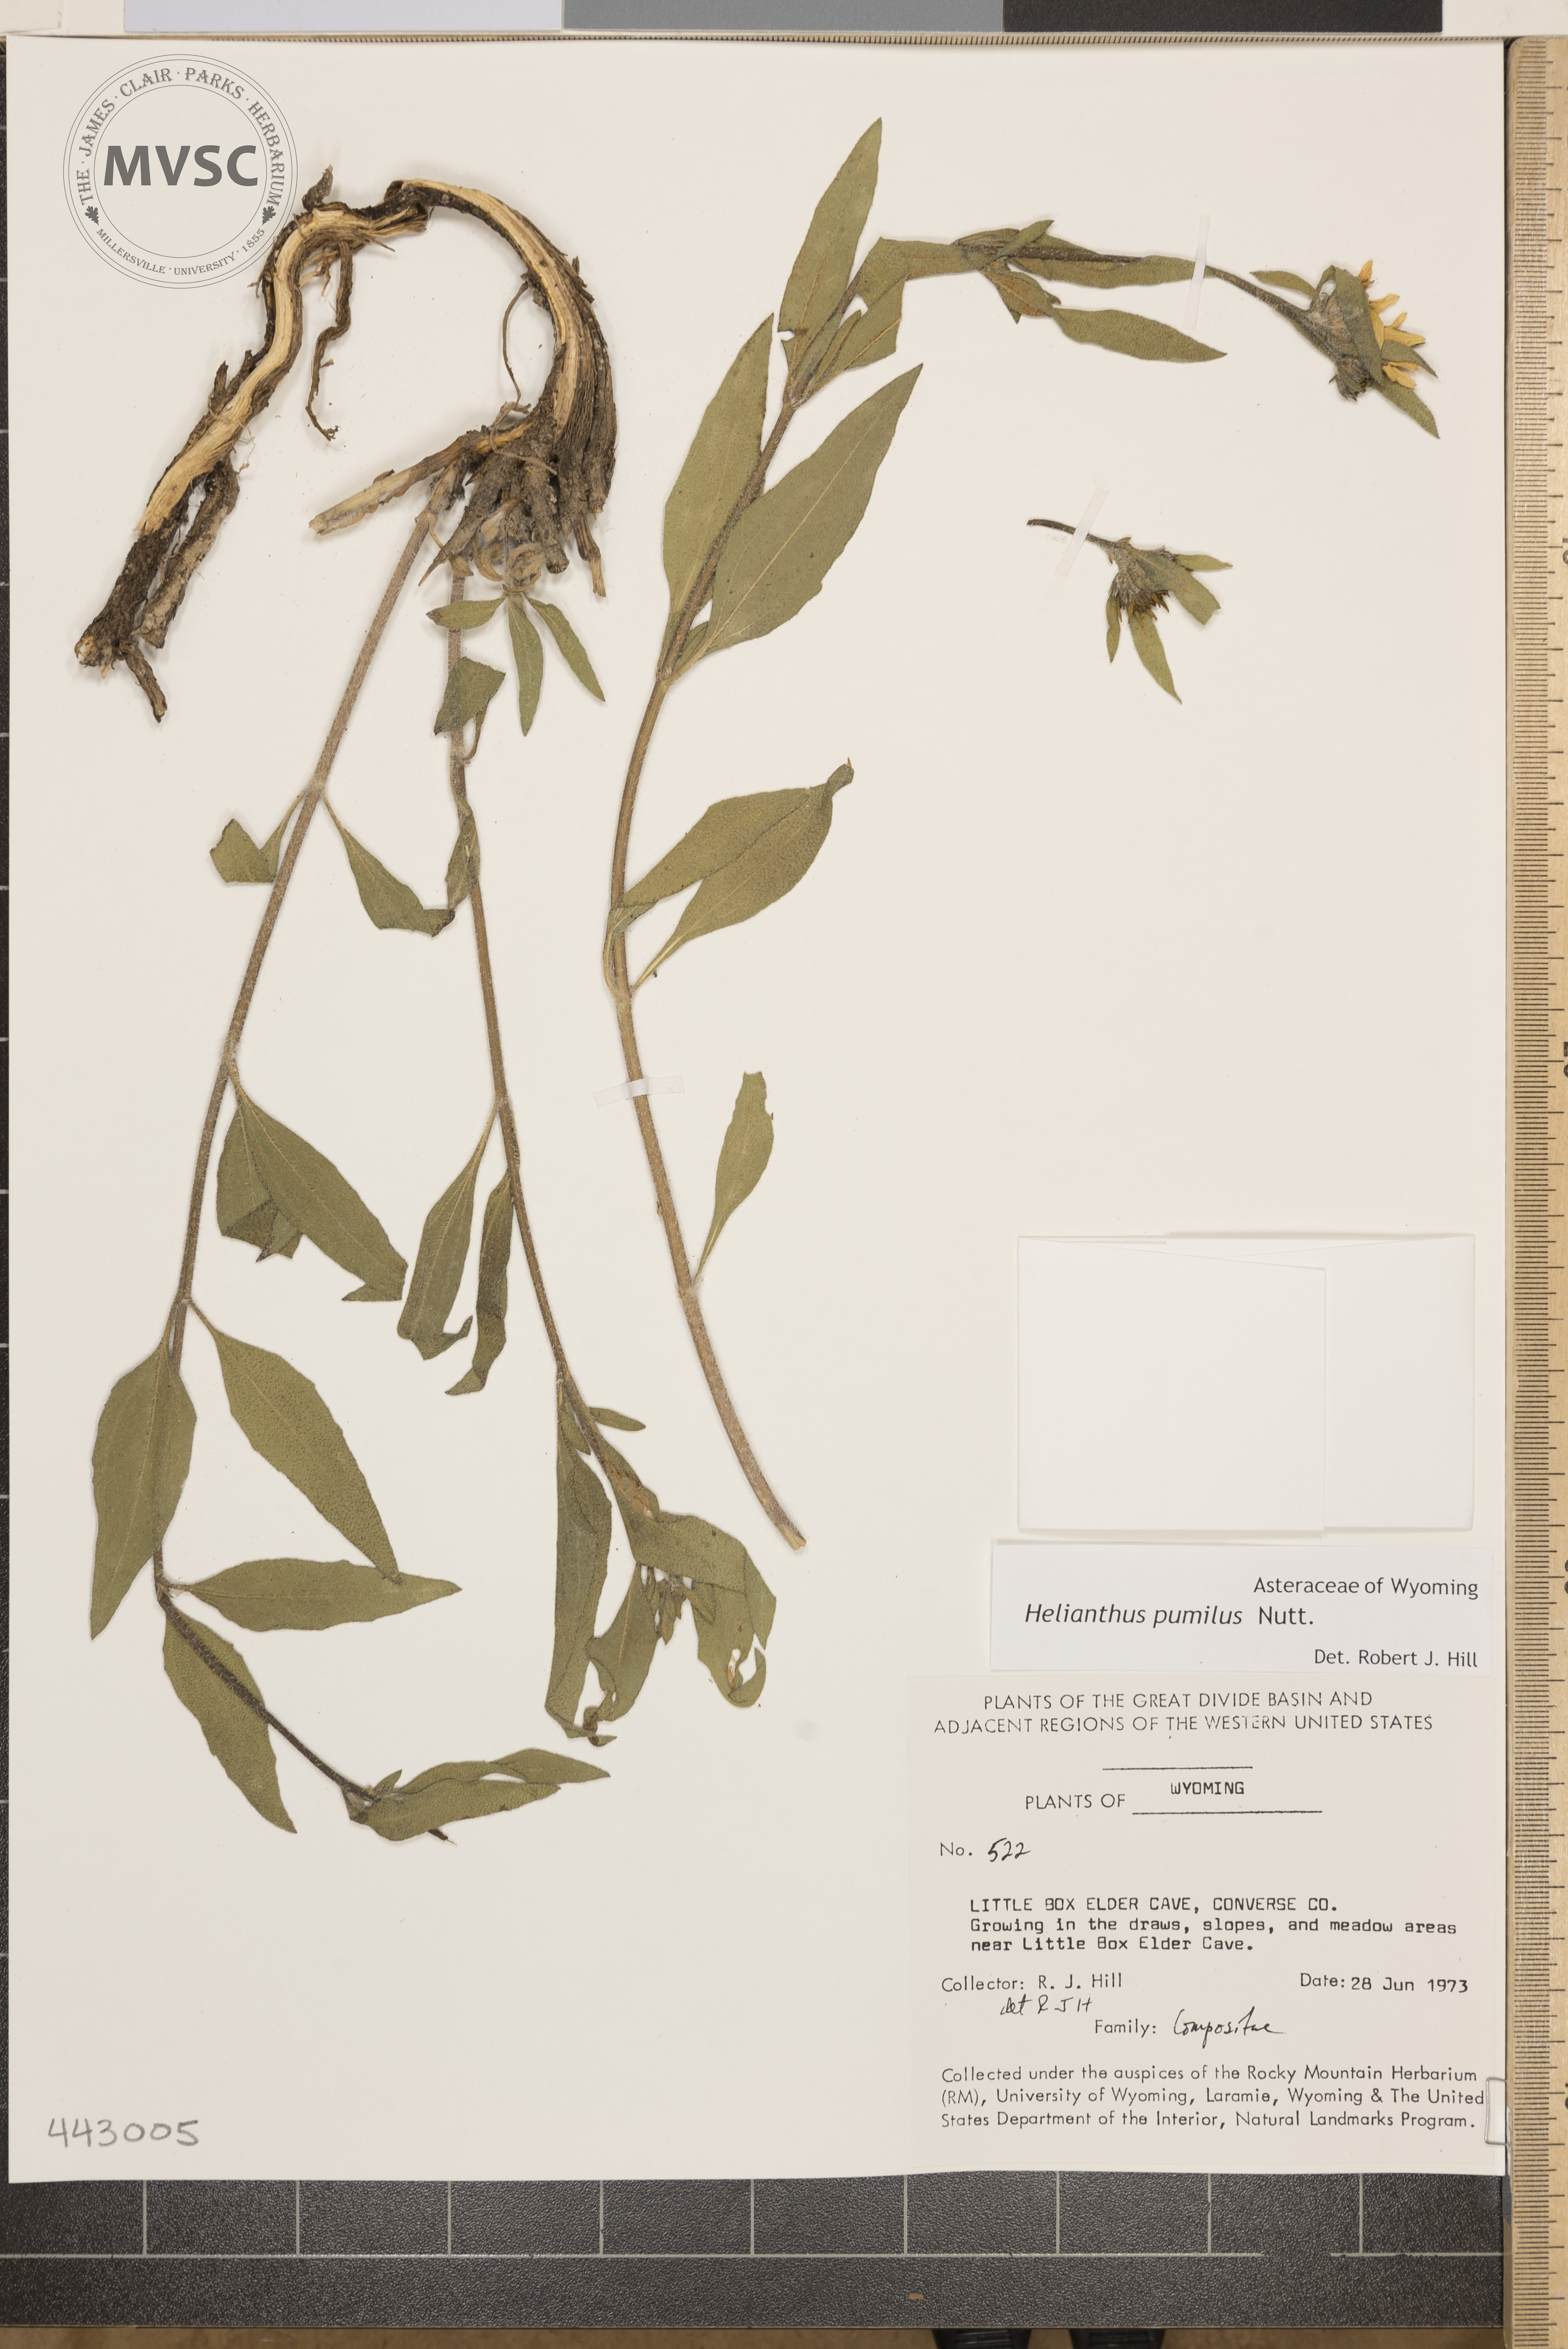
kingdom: Plantae
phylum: Tracheophyta
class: Magnoliopsida
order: Asterales
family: Asteraceae
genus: Helianthus
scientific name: Helianthus pumilus
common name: Dwarf sunflower
